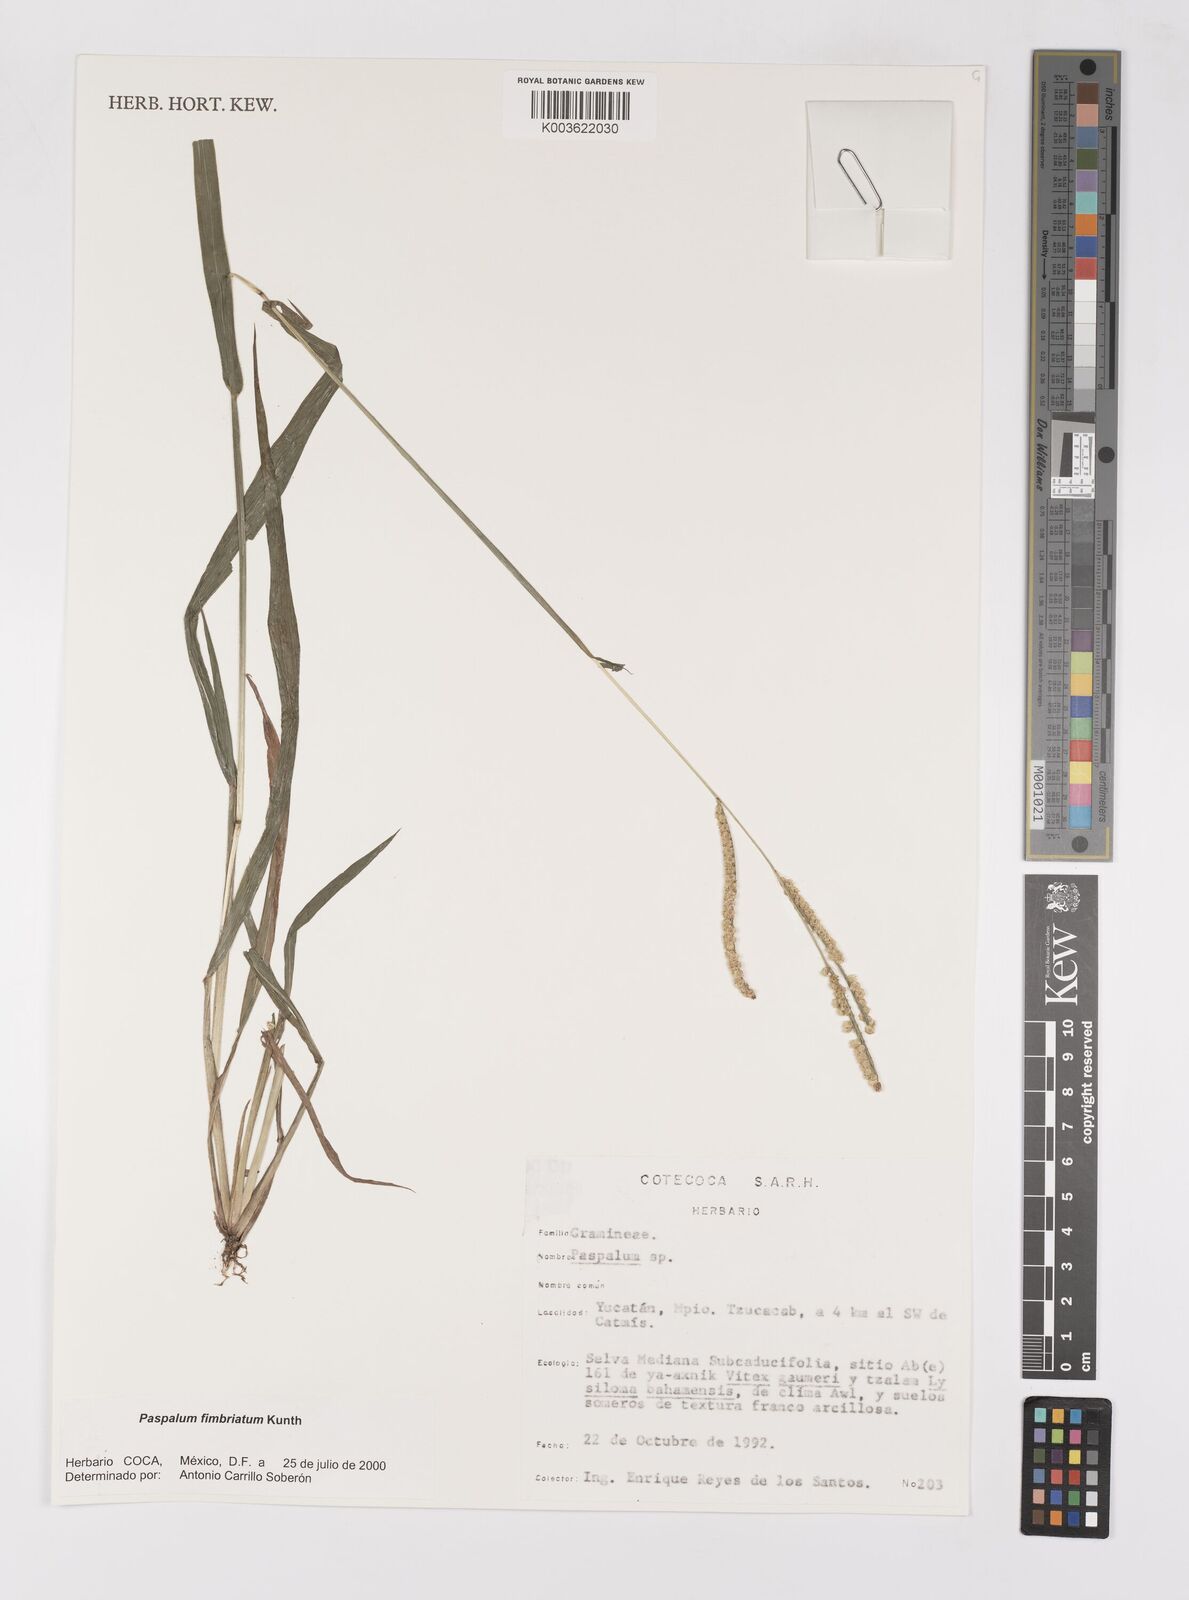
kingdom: Plantae
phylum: Tracheophyta
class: Liliopsida
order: Poales
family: Poaceae
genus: Paspalum
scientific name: Paspalum fimbriatum
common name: Panama crowngrass
